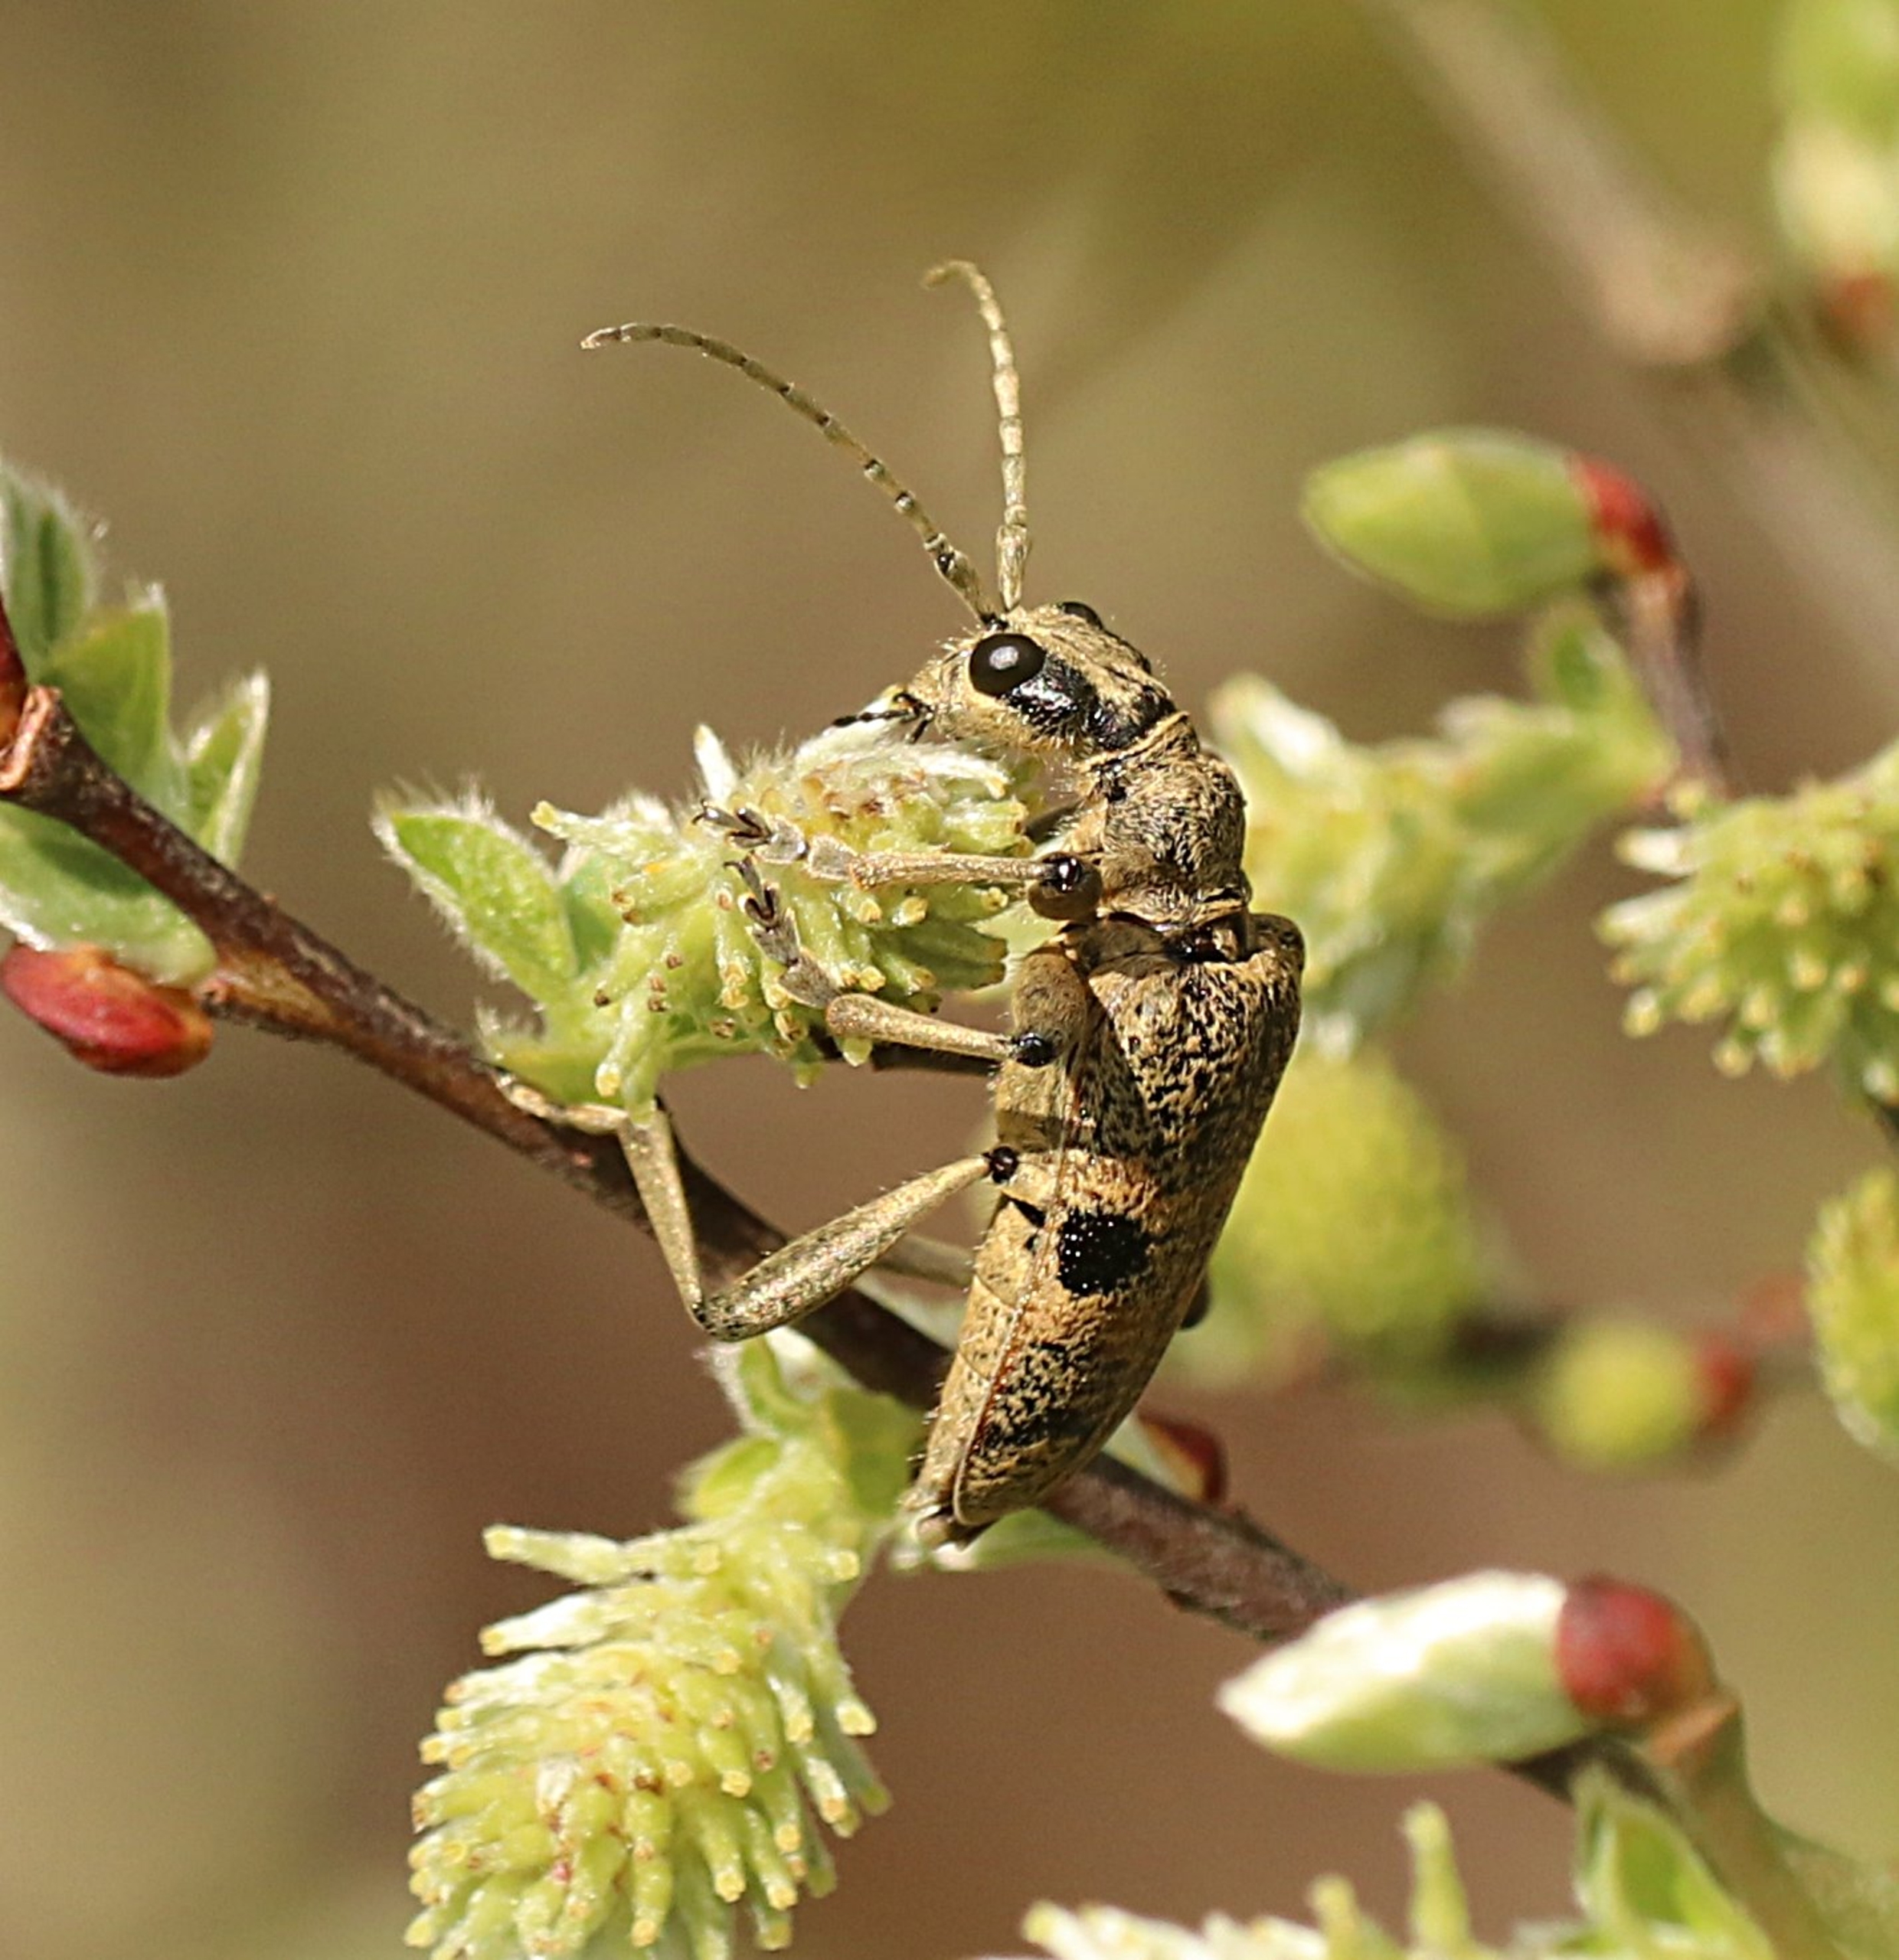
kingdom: Animalia
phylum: Arthropoda
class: Insecta
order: Coleoptera
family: Cerambycidae
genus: Rhagium
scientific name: Rhagium mordax
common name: Blankplettet tandbuk
